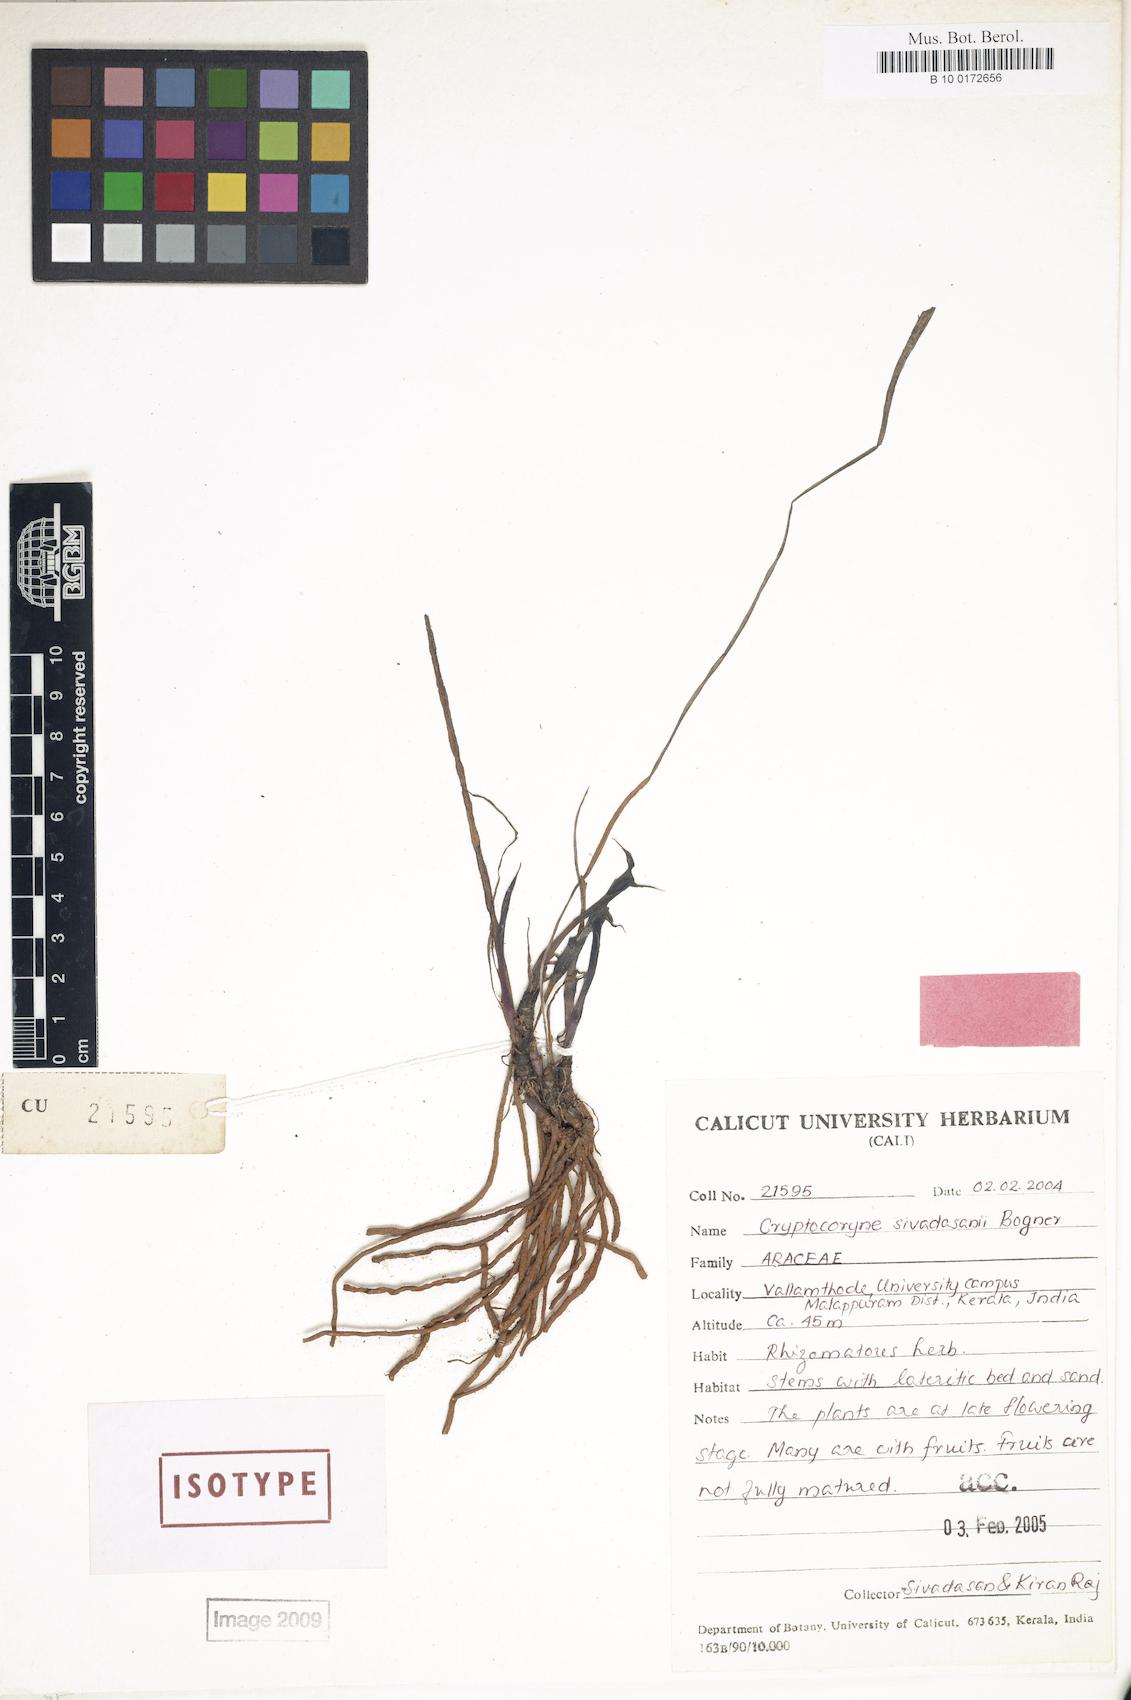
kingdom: Plantae
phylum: Tracheophyta
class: Liliopsida
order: Alismatales
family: Araceae
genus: Cryptocoryne
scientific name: Cryptocoryne sivadasanii
